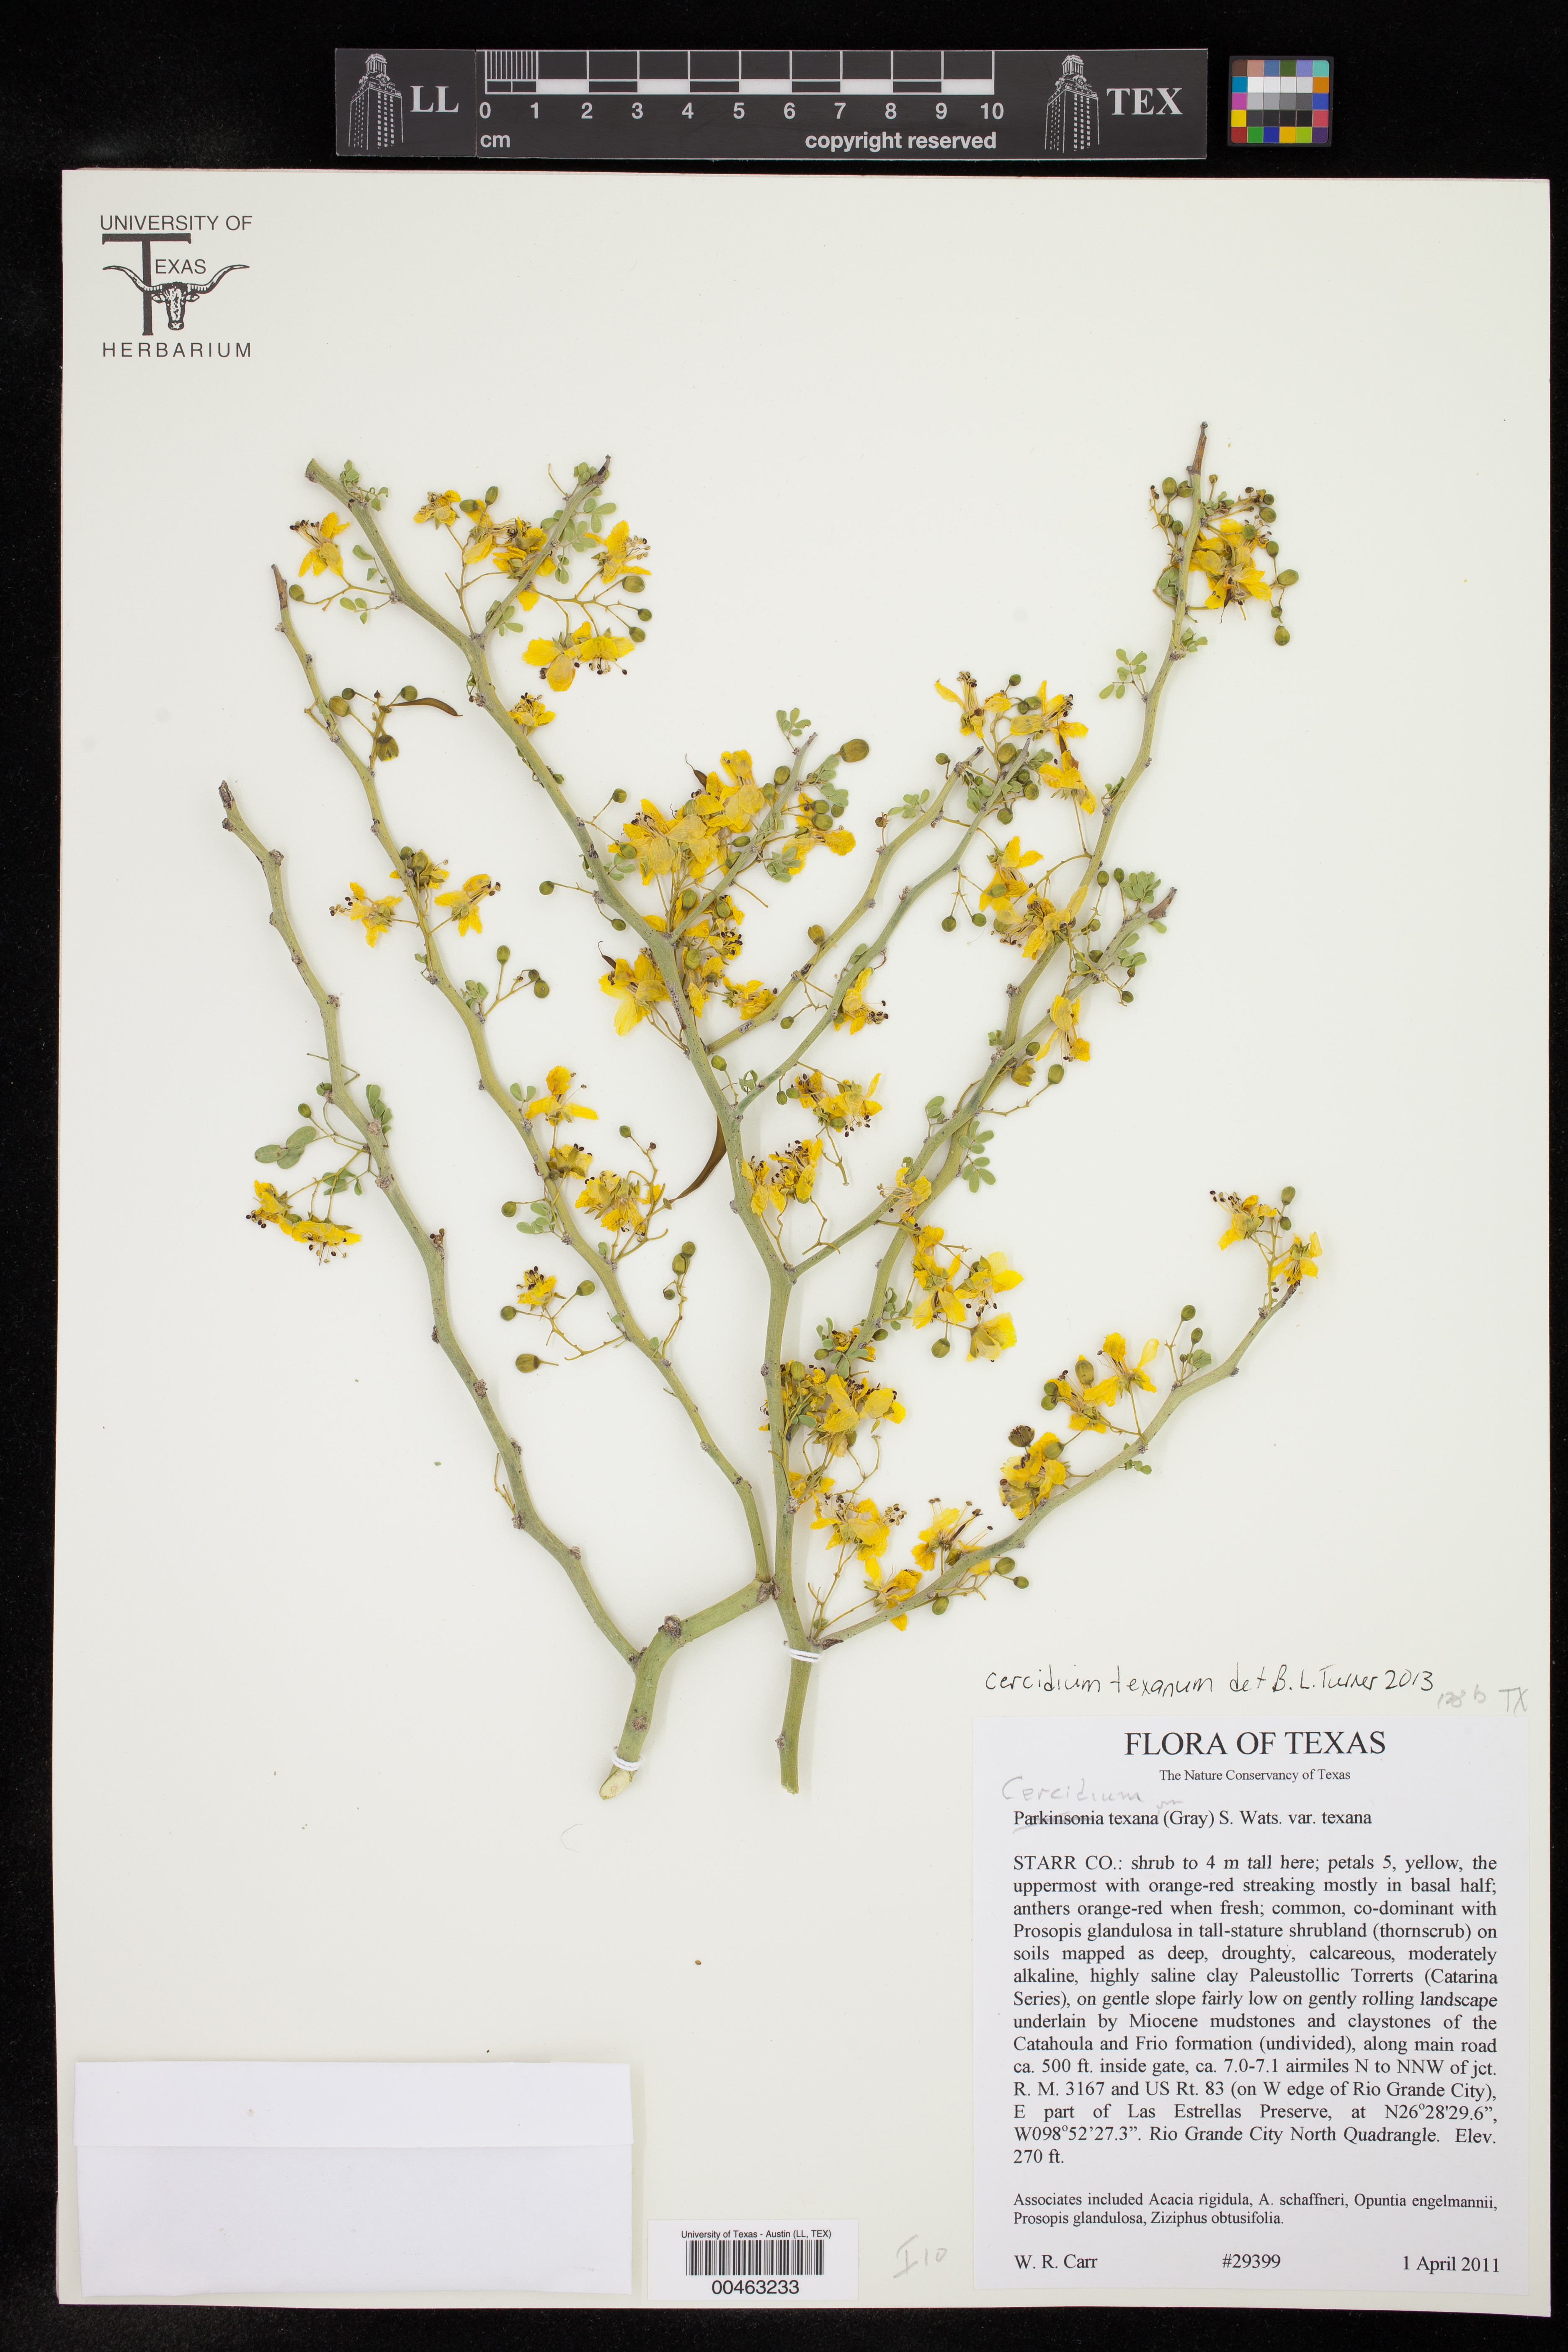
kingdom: Plantae
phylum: Tracheophyta
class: Magnoliopsida
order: Fabales
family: Fabaceae
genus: Parkinsonia
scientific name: Parkinsonia texana
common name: Texas paloverde
